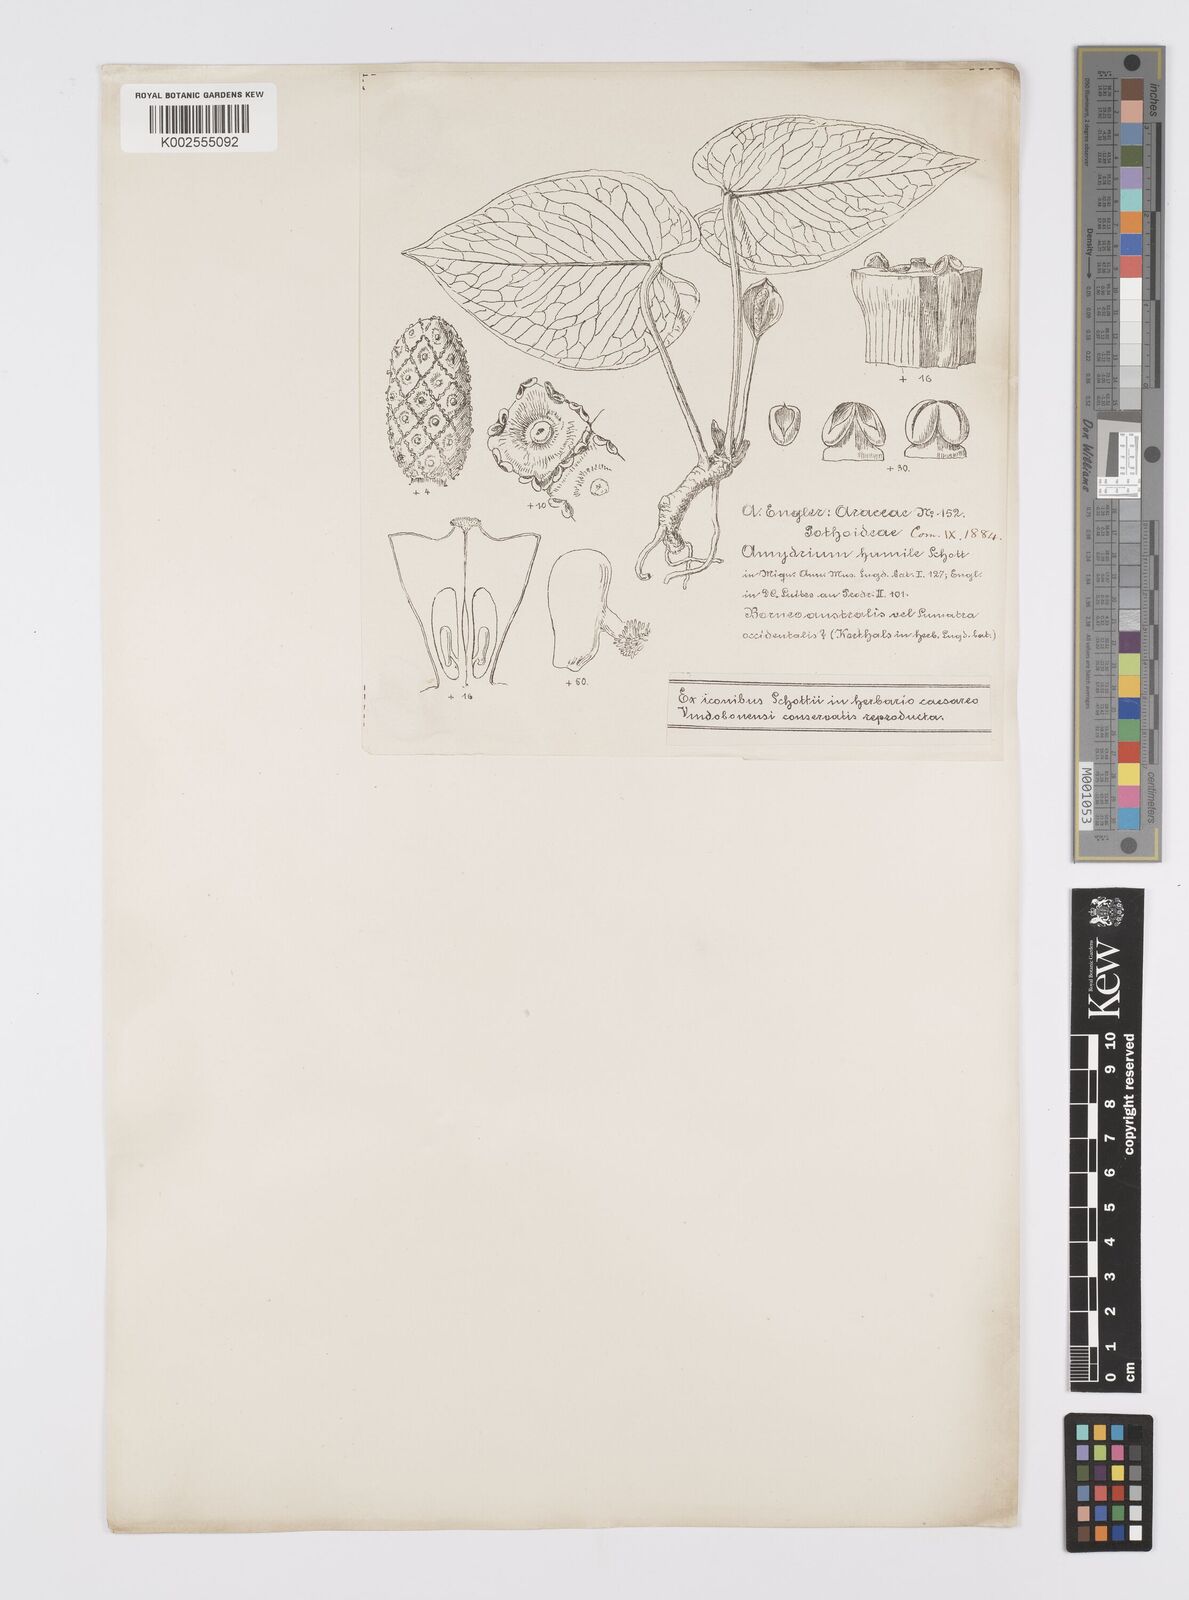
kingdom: Plantae
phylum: Tracheophyta
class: Liliopsida
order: Alismatales
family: Araceae
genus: Amydrium
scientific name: Amydrium humile
